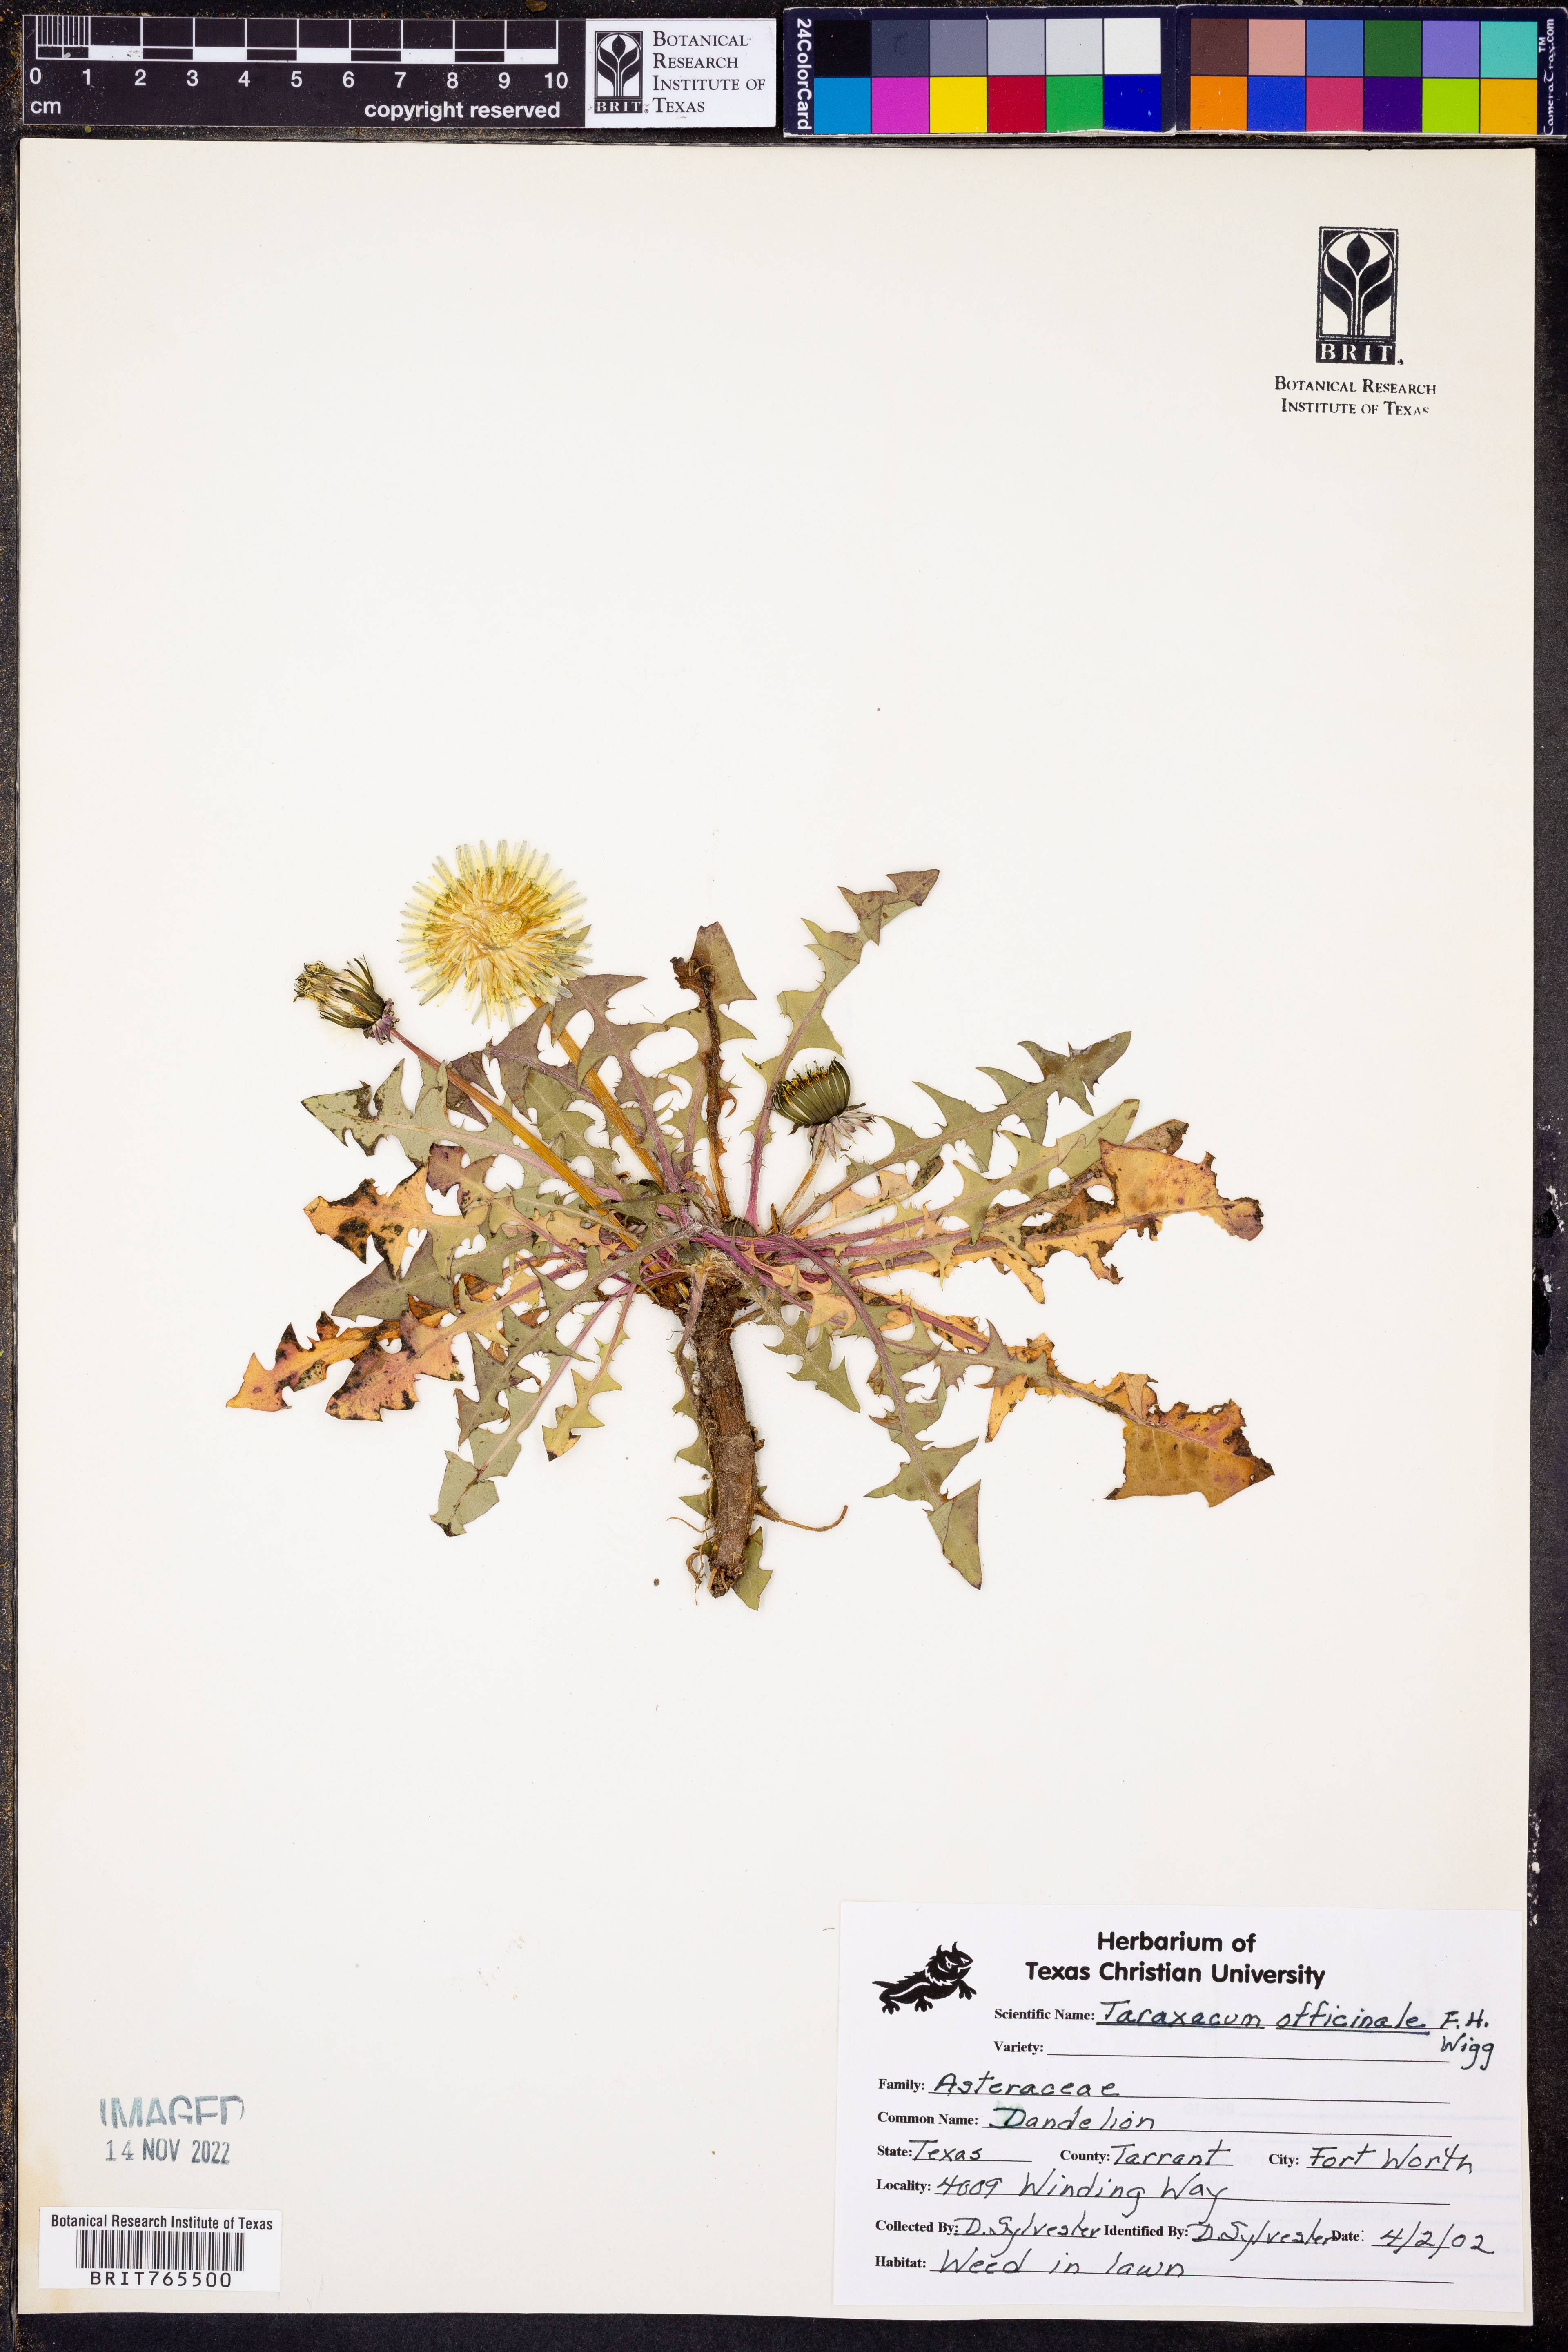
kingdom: Plantae
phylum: Tracheophyta
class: Magnoliopsida
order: Asterales
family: Asteraceae
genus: Taraxacum
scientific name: Taraxacum officinale
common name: Common dandelion
